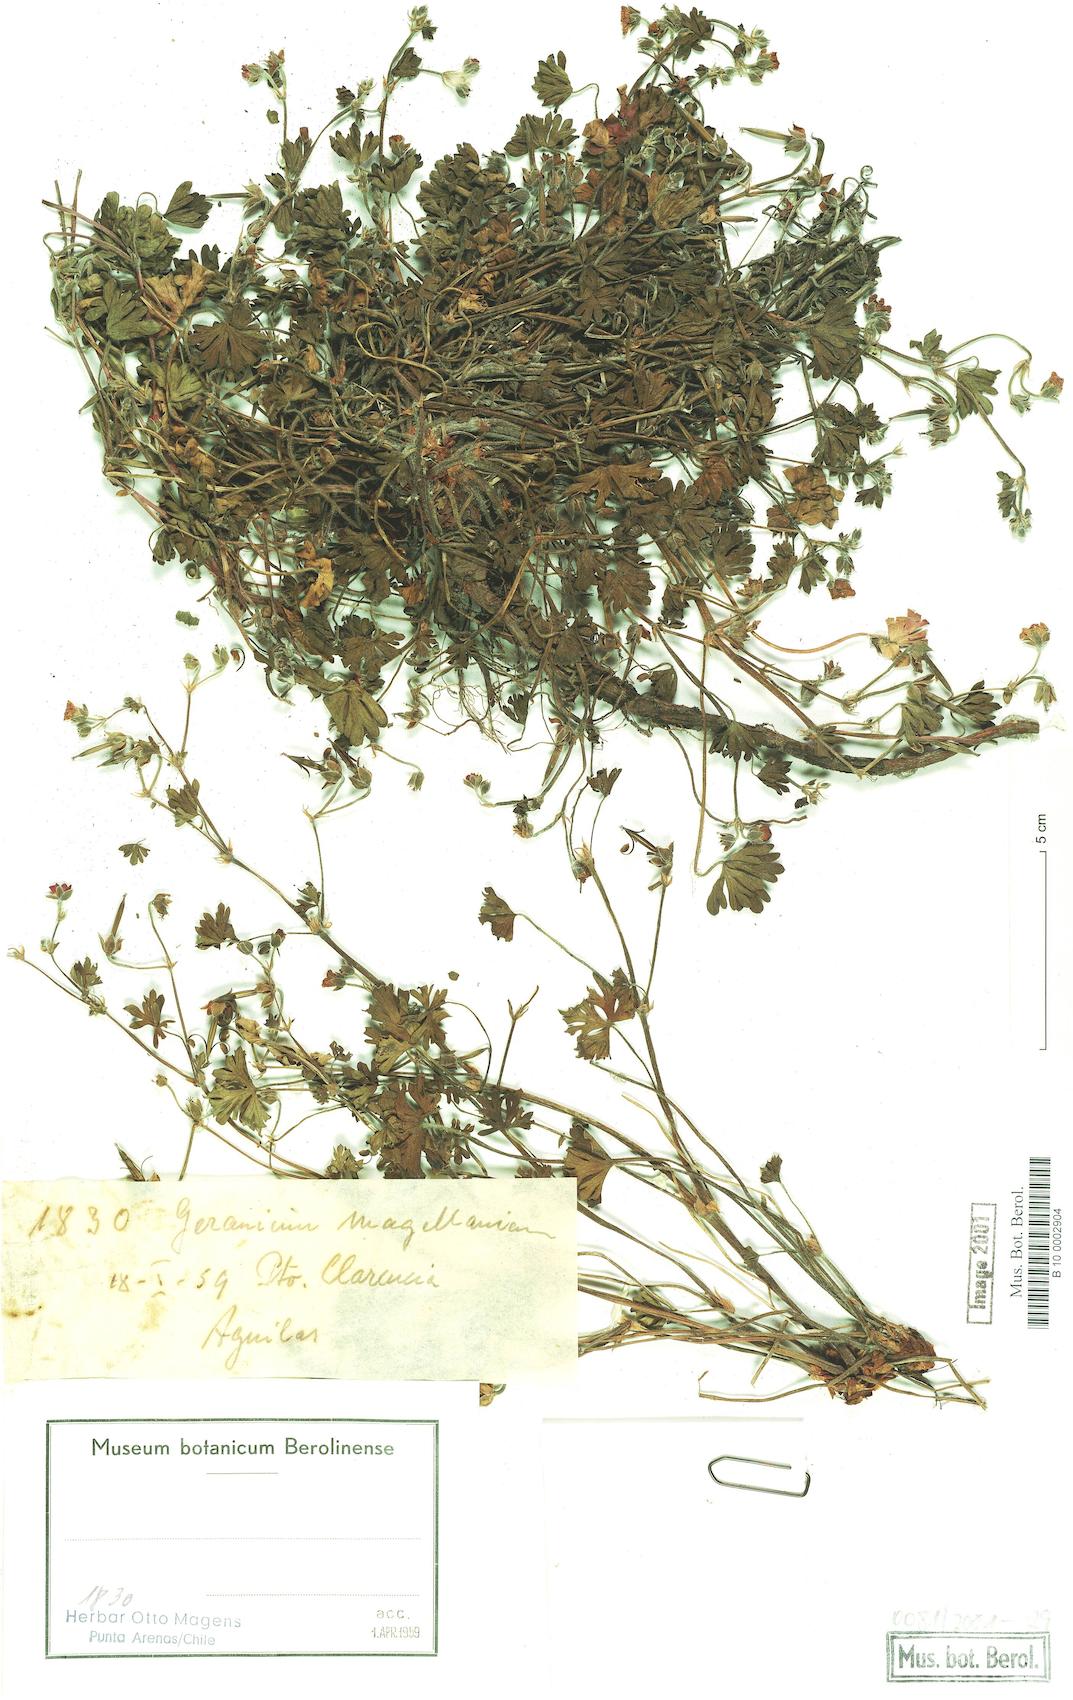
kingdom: Plantae
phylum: Tracheophyta
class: Magnoliopsida
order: Geraniales
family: Geraniaceae
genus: Geranium
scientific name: Geranium magellanicum
